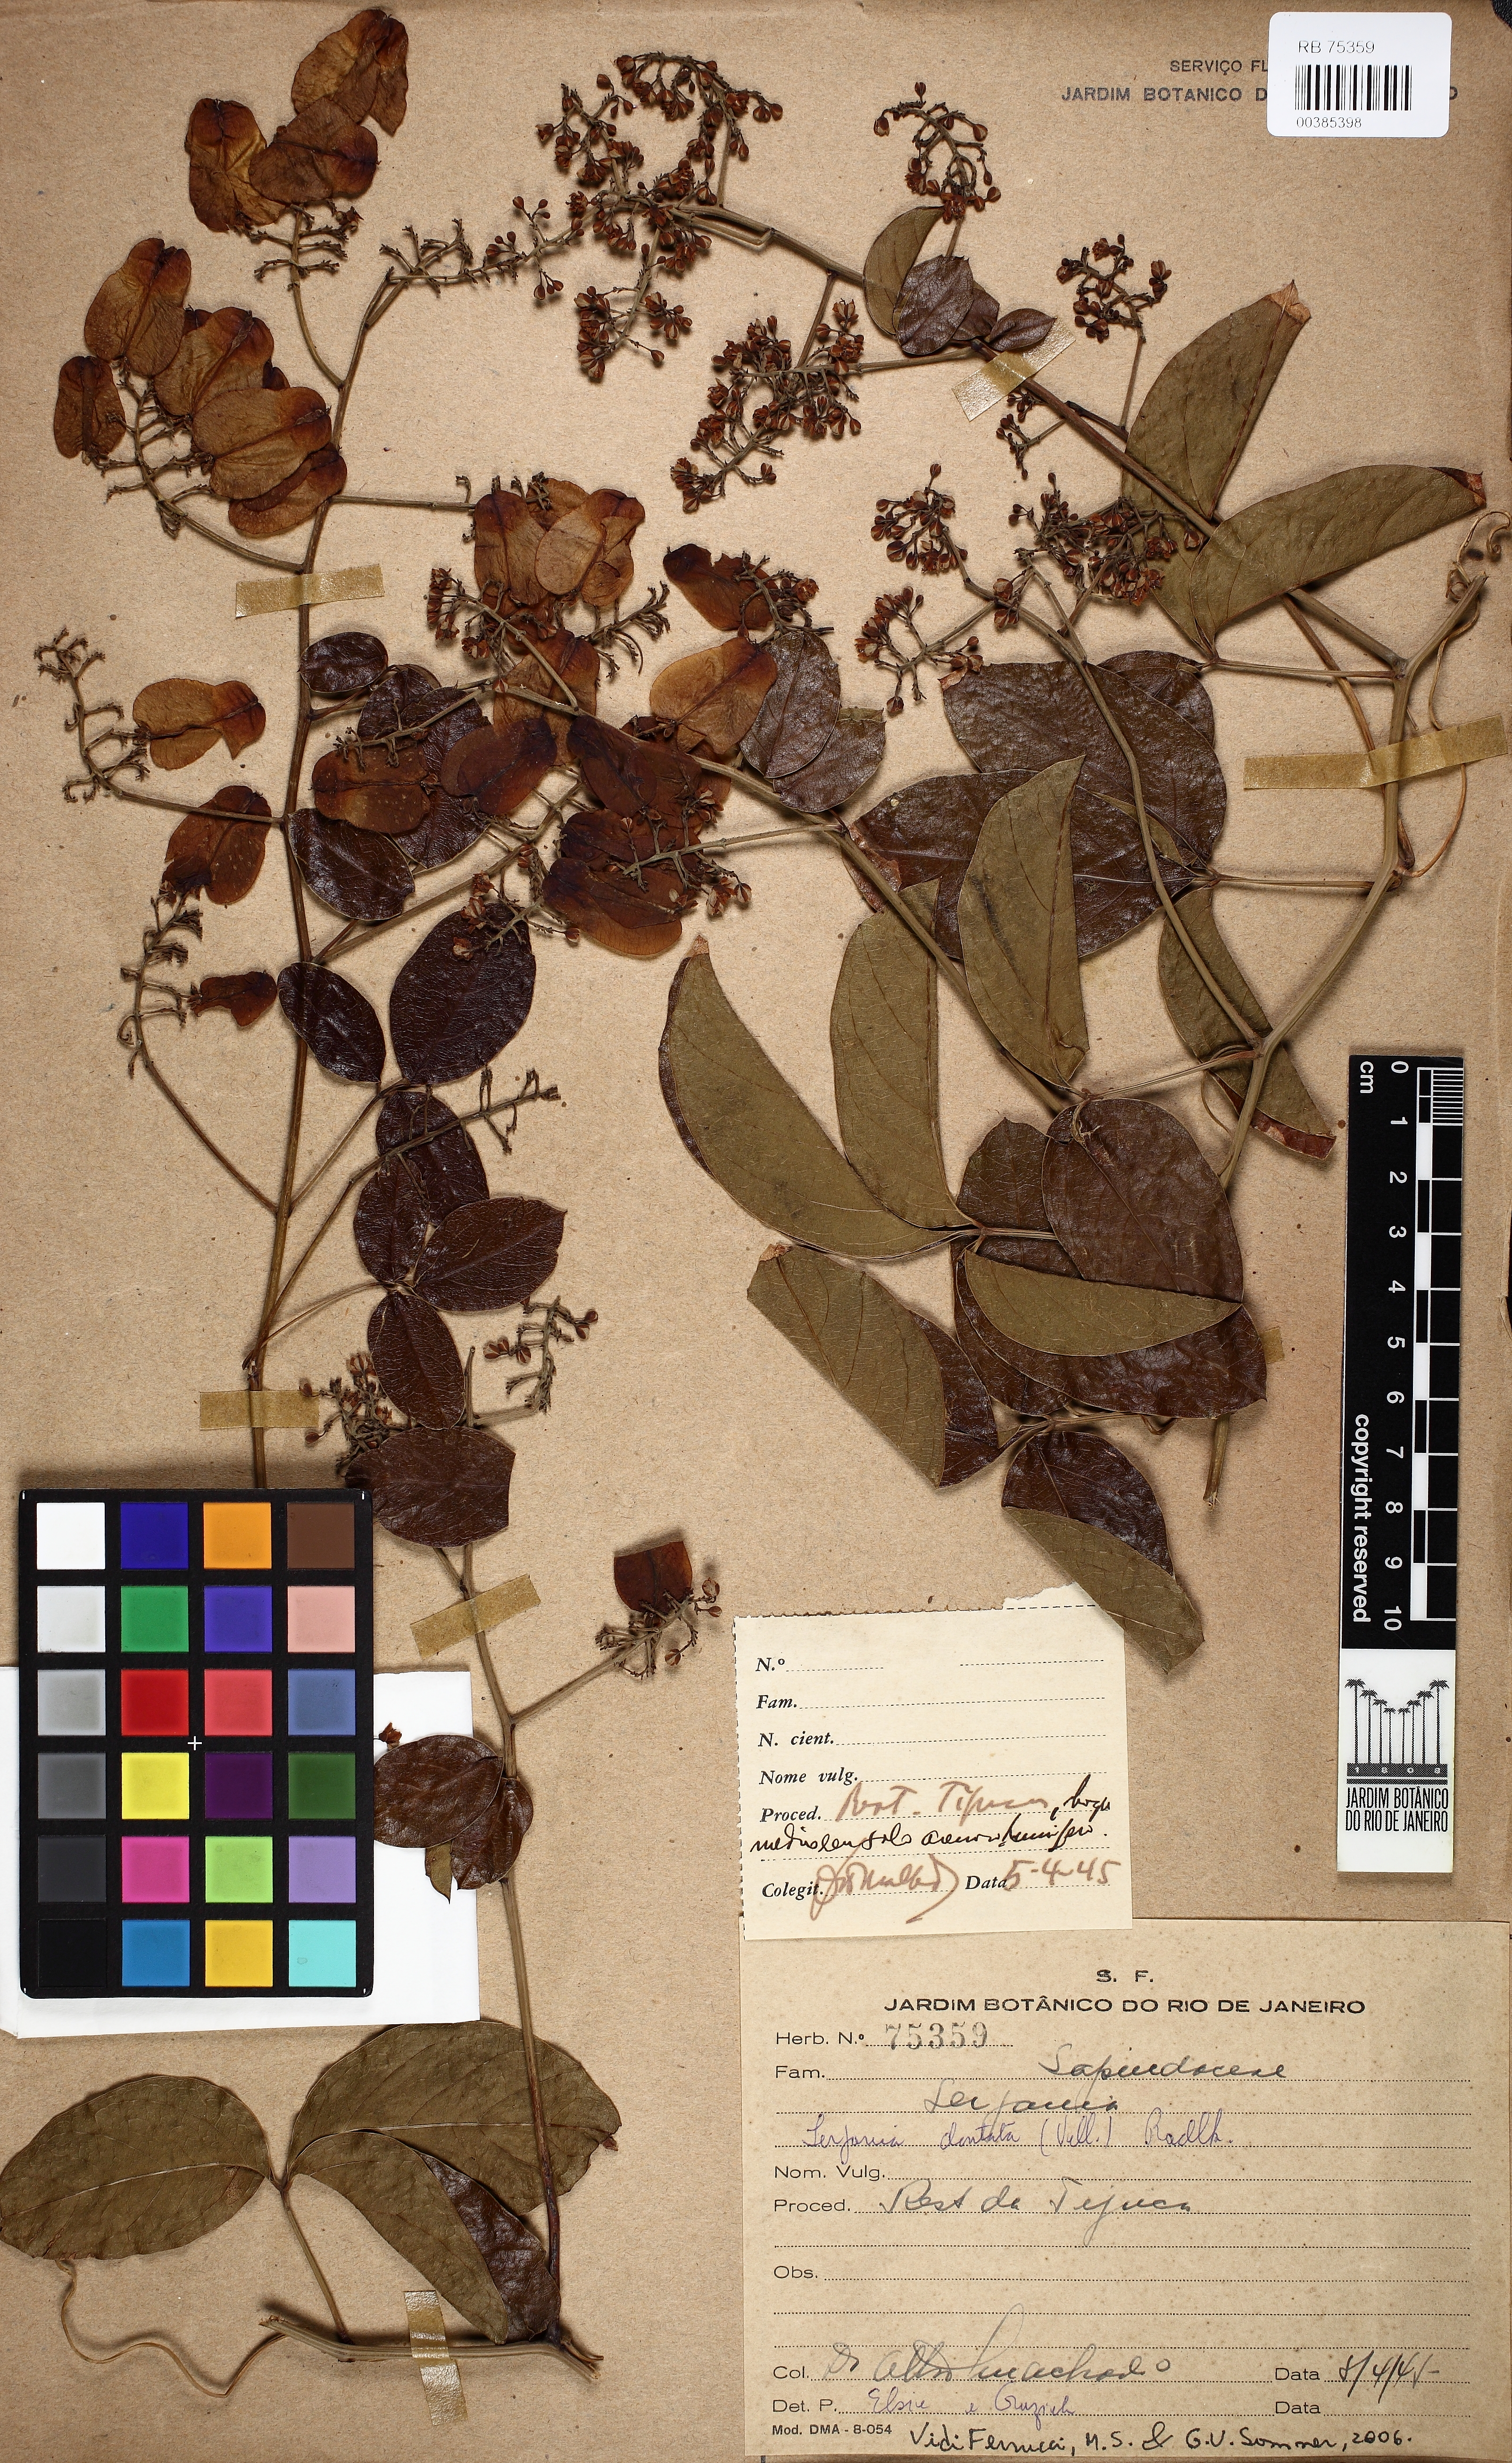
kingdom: Plantae
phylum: Tracheophyta
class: Magnoliopsida
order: Sapindales
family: Sapindaceae
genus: Serjania
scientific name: Serjania dentata
